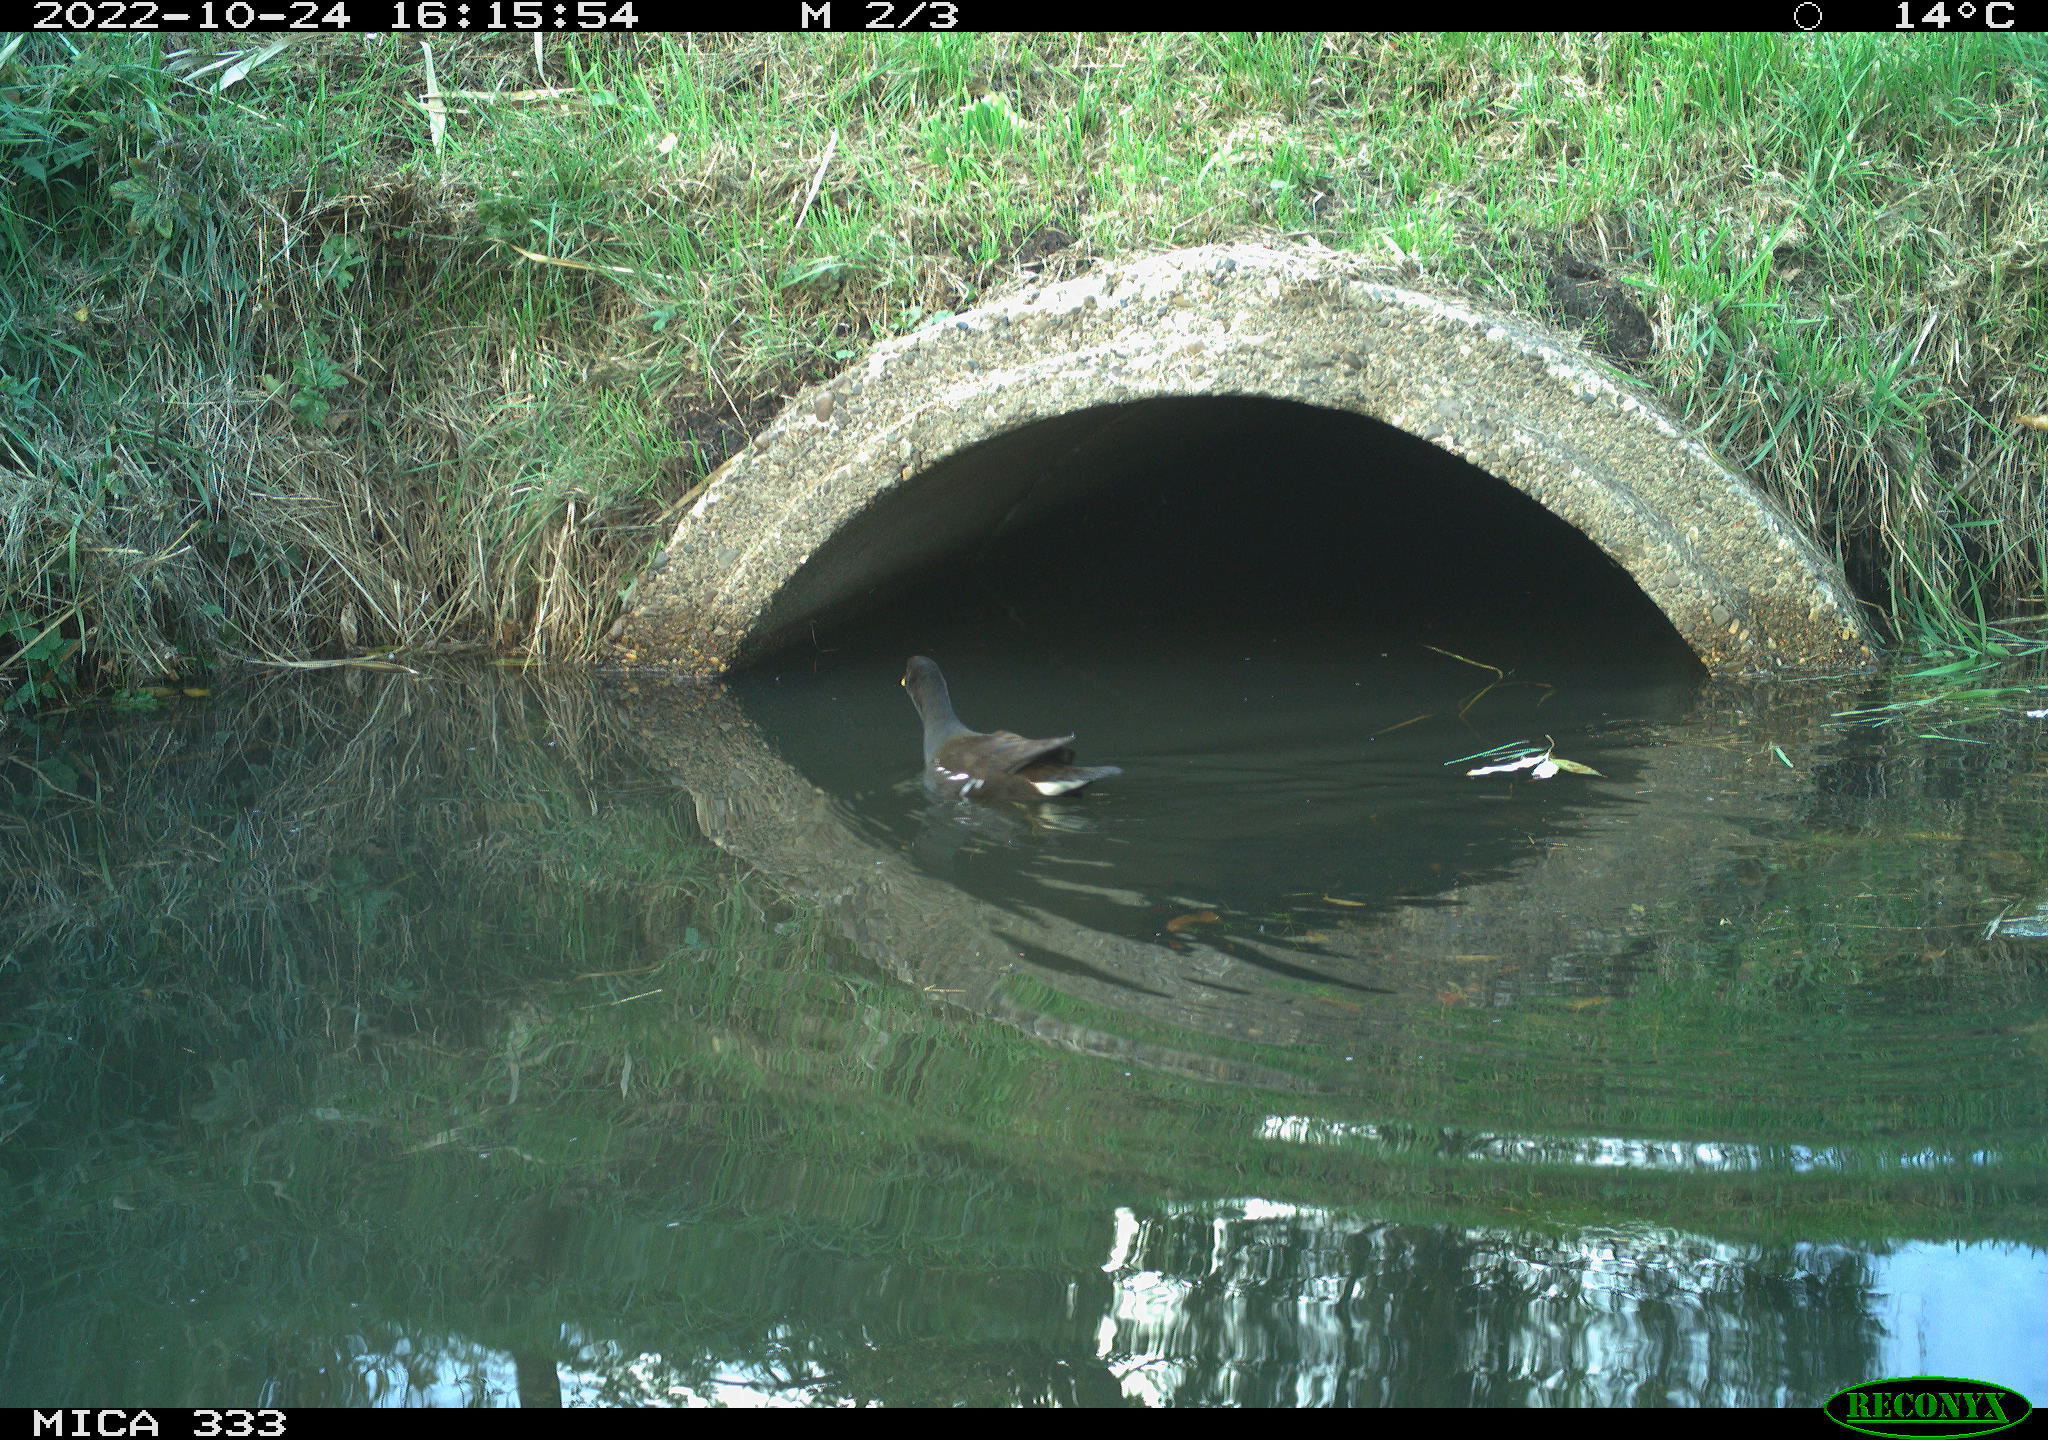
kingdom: Animalia
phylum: Chordata
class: Aves
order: Gruiformes
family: Rallidae
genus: Gallinula
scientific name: Gallinula chloropus
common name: Common moorhen
